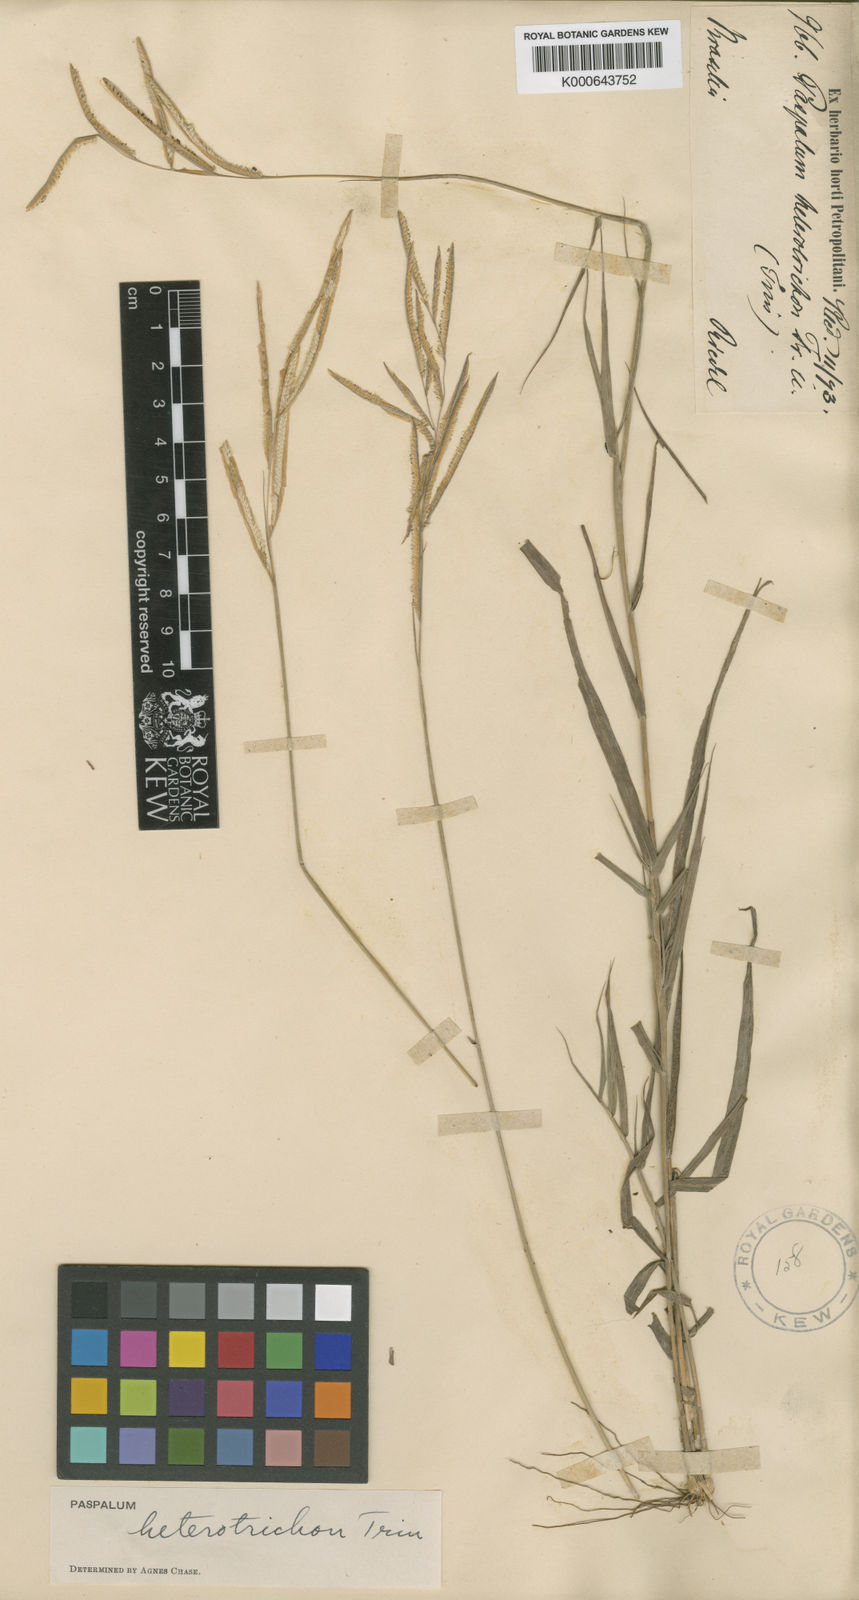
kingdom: Plantae
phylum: Tracheophyta
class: Liliopsida
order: Poales
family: Poaceae
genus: Paspalum
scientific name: Paspalum
